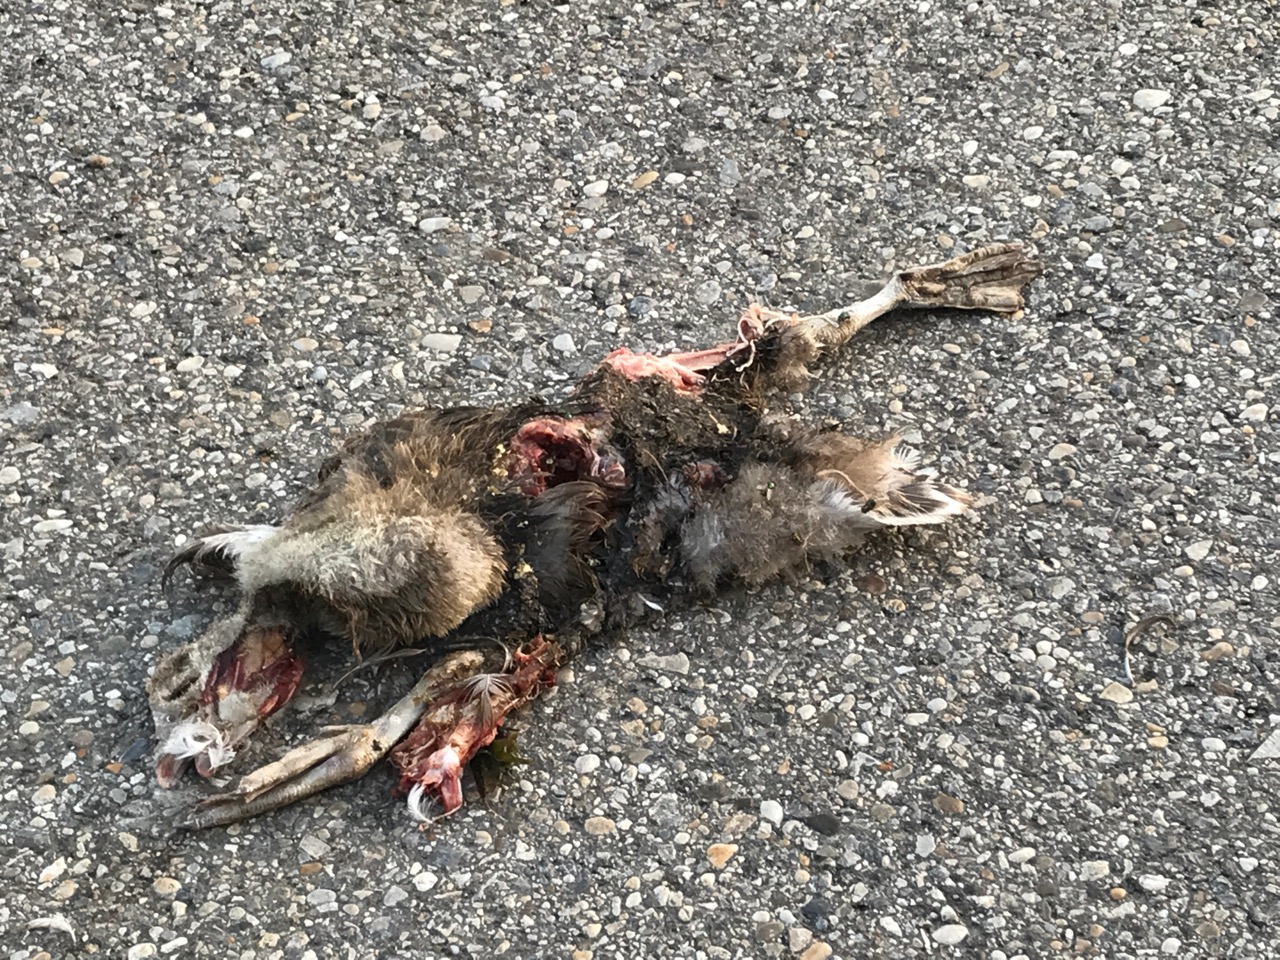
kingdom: Animalia
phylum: Chordata
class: Aves
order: Anseriformes
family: Anatidae
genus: Anser
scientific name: Anser anser
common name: Greylag goose
